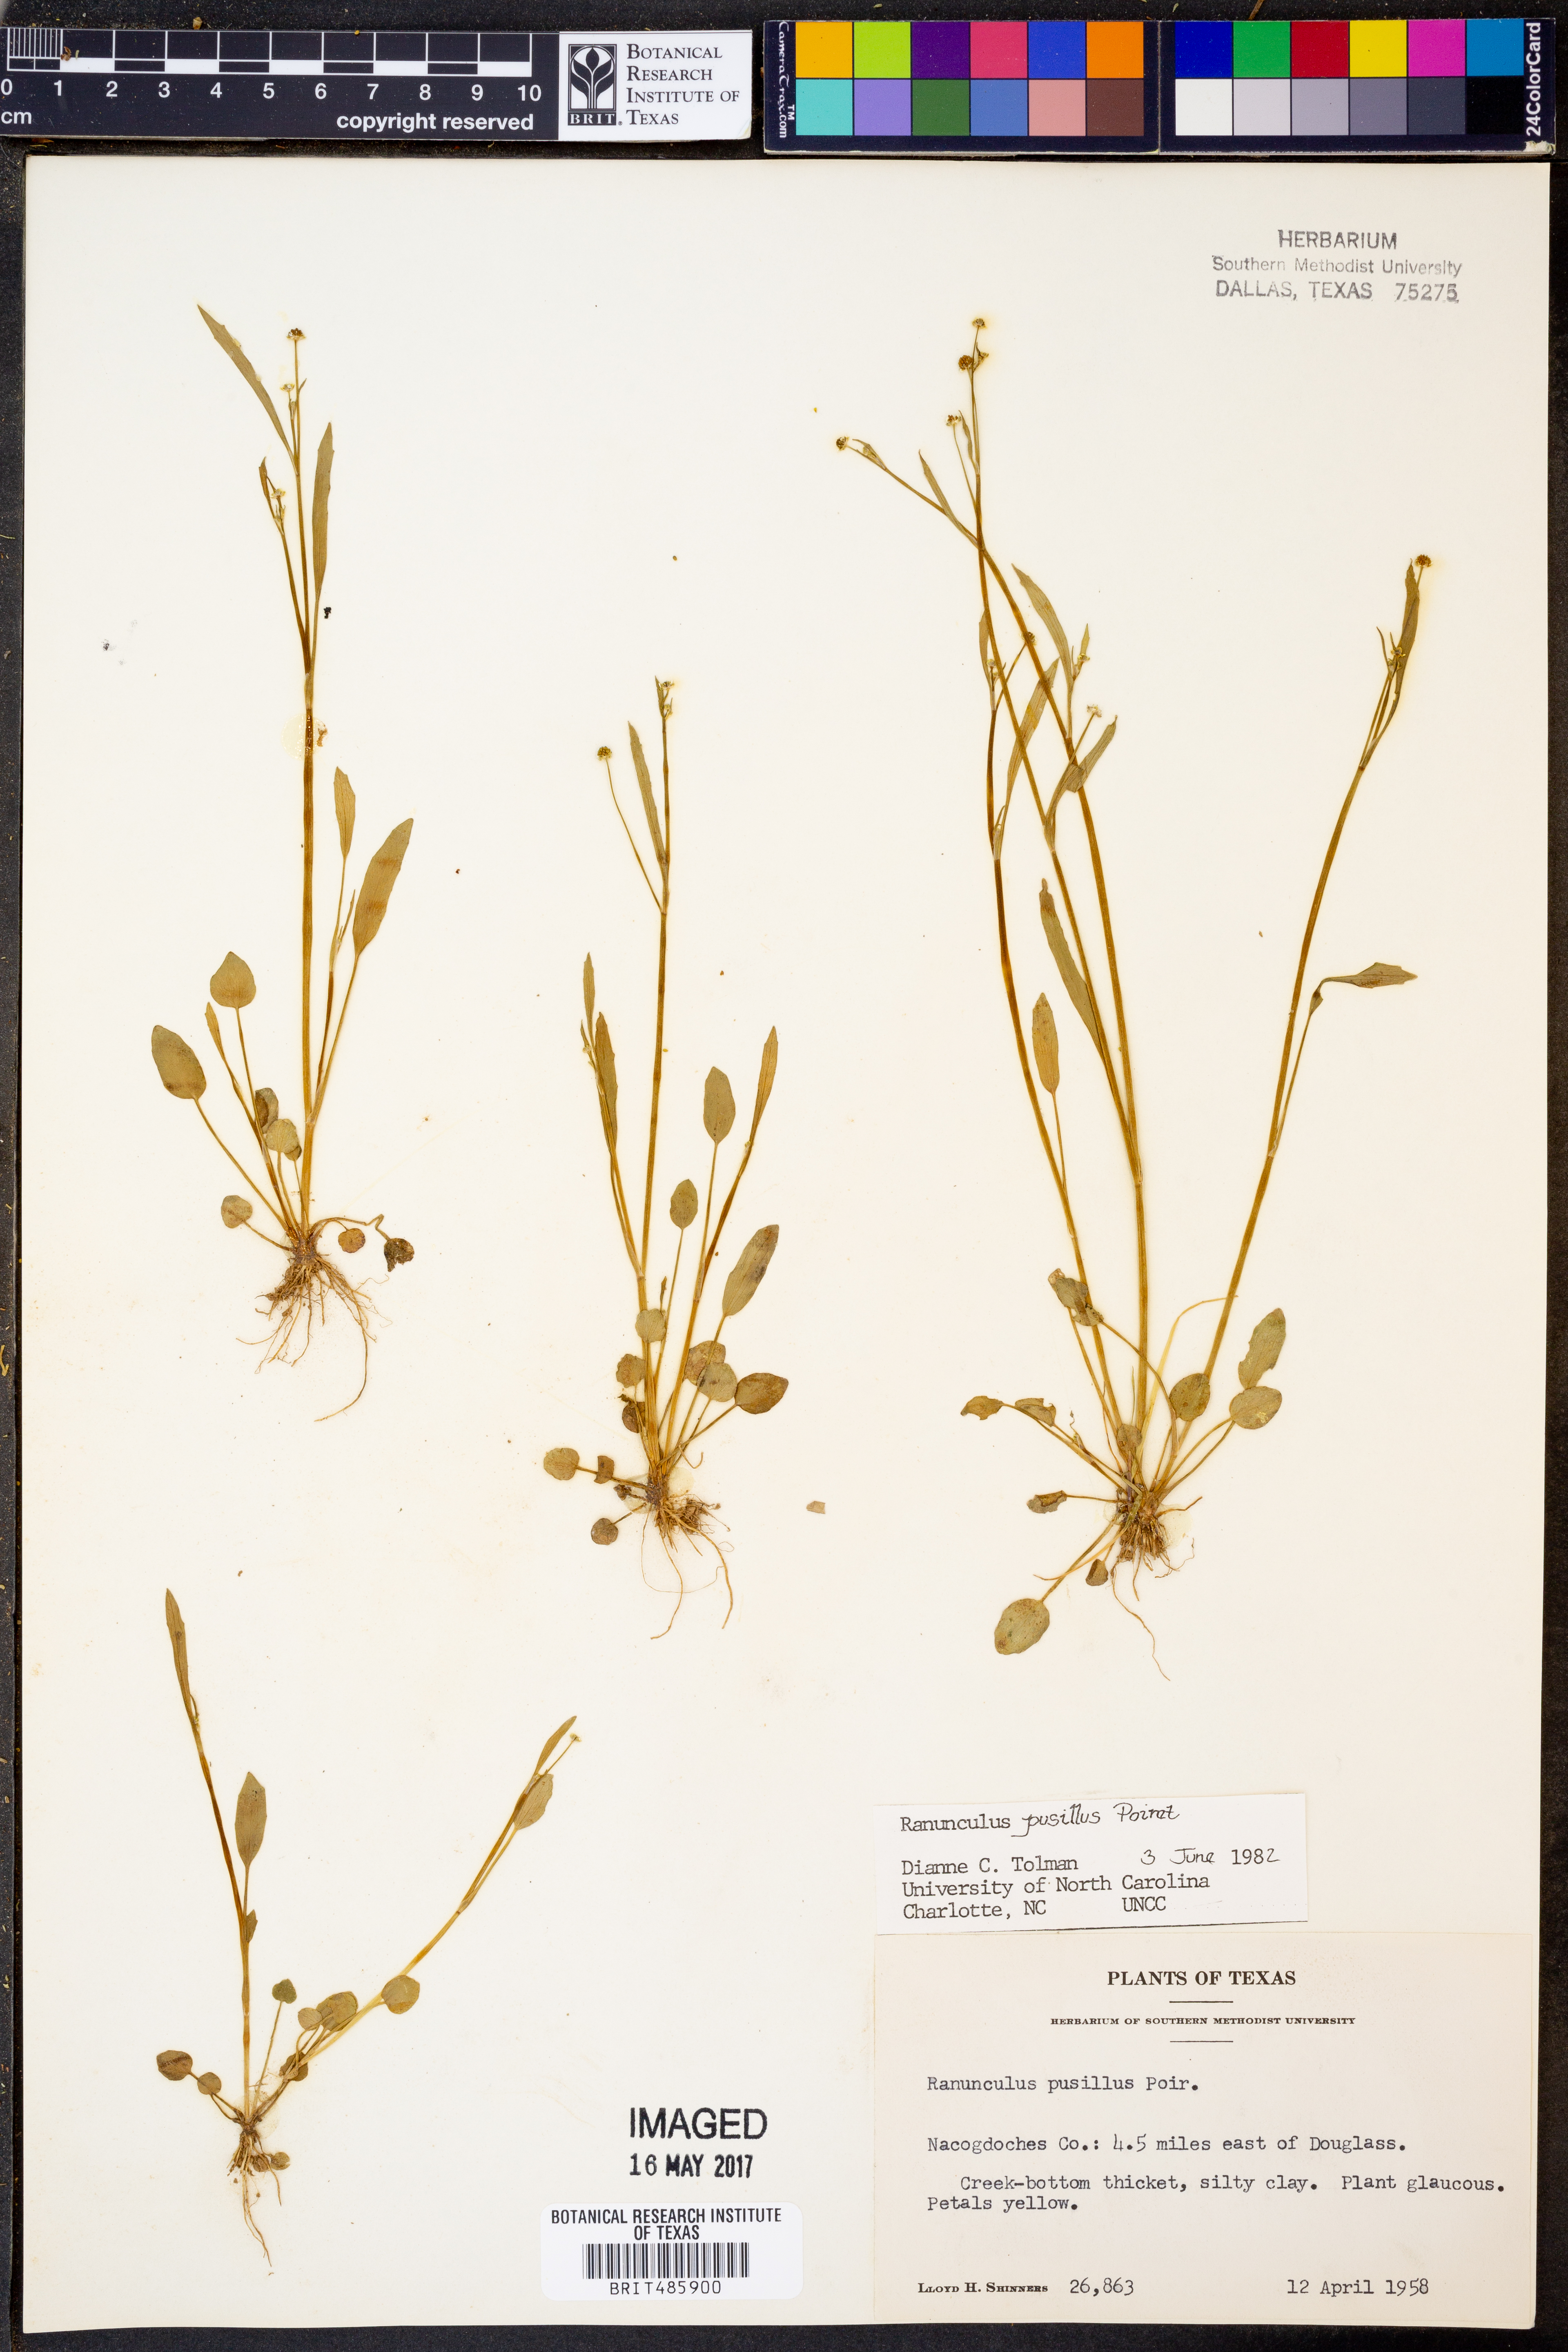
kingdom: Plantae
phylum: Tracheophyta
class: Magnoliopsida
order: Ranunculales
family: Ranunculaceae
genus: Ranunculus
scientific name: Ranunculus pusillus
